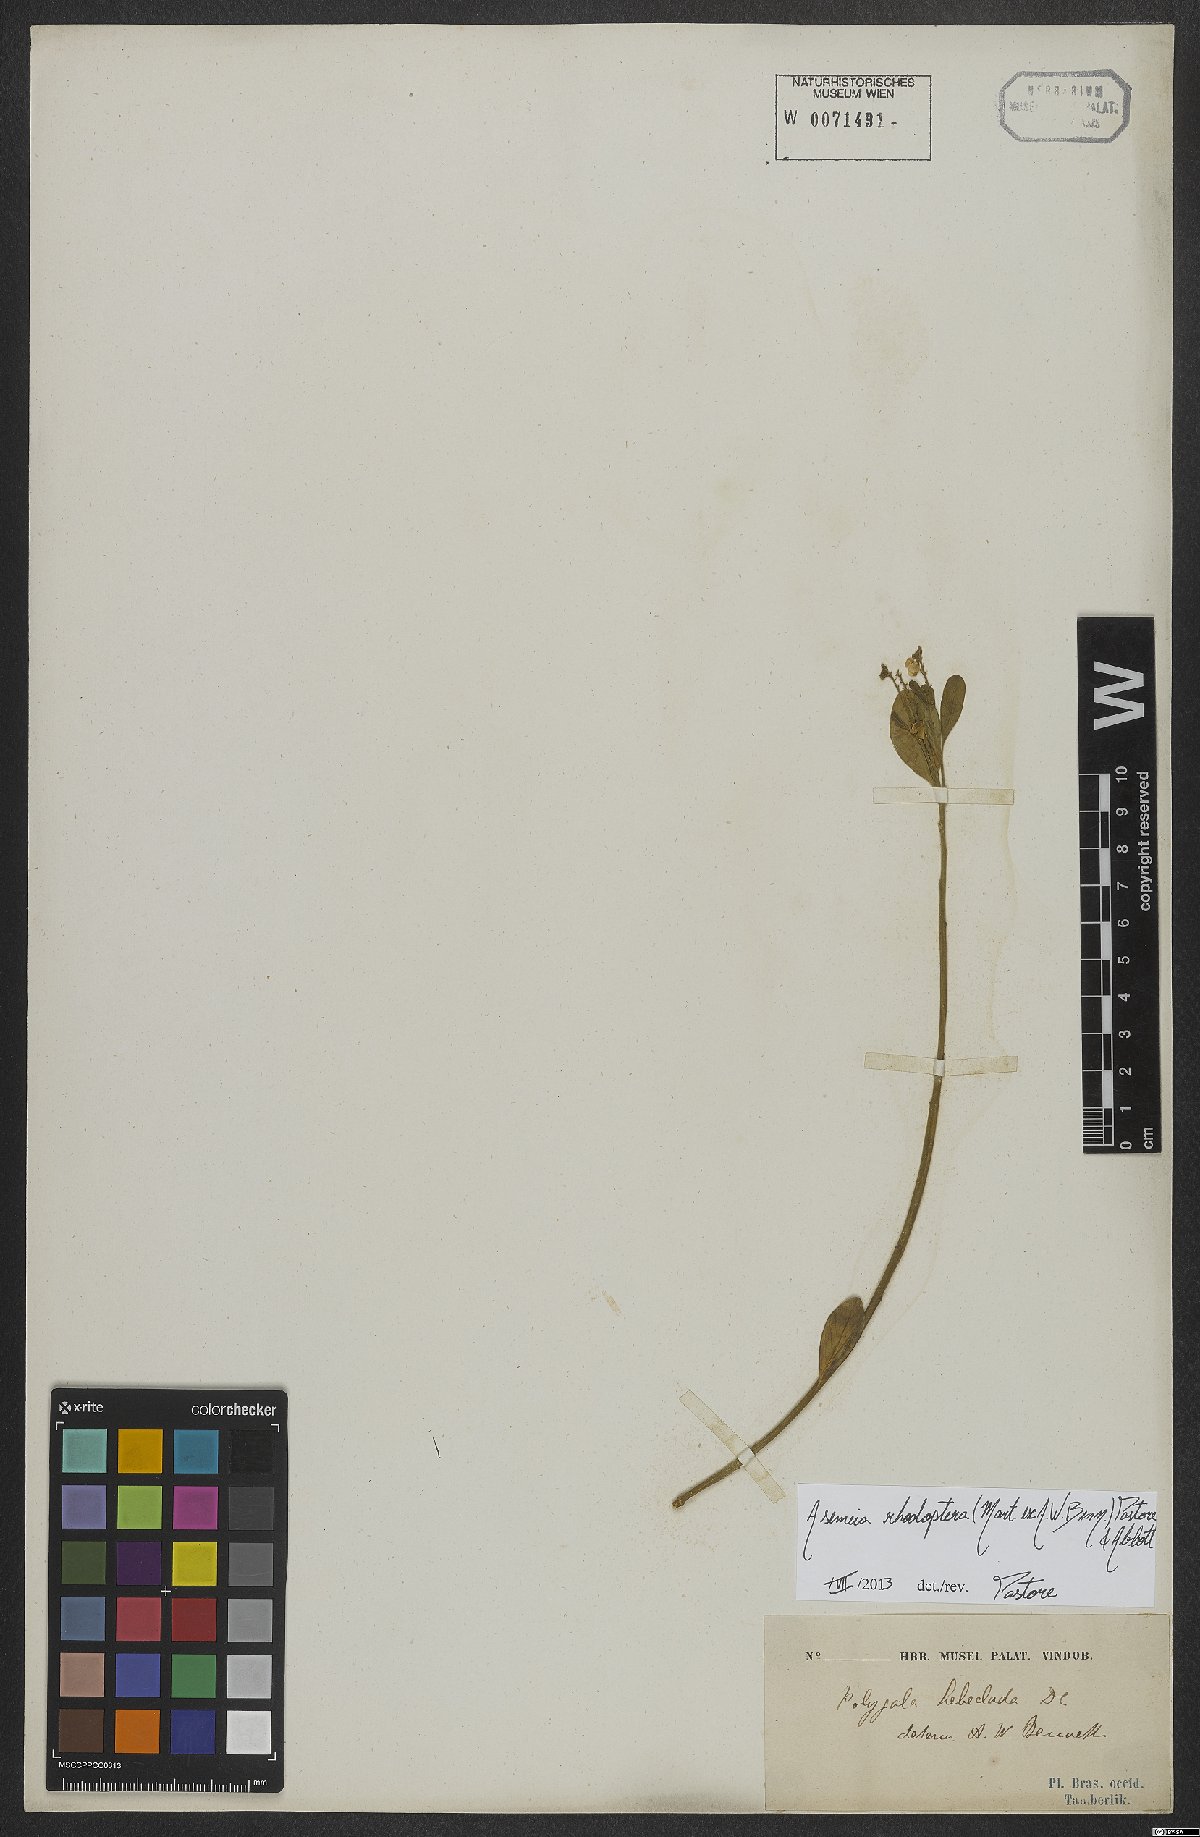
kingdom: Plantae
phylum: Tracheophyta
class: Magnoliopsida
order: Fabales
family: Polygalaceae
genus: Asemeia
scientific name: Asemeia rhodoptera
